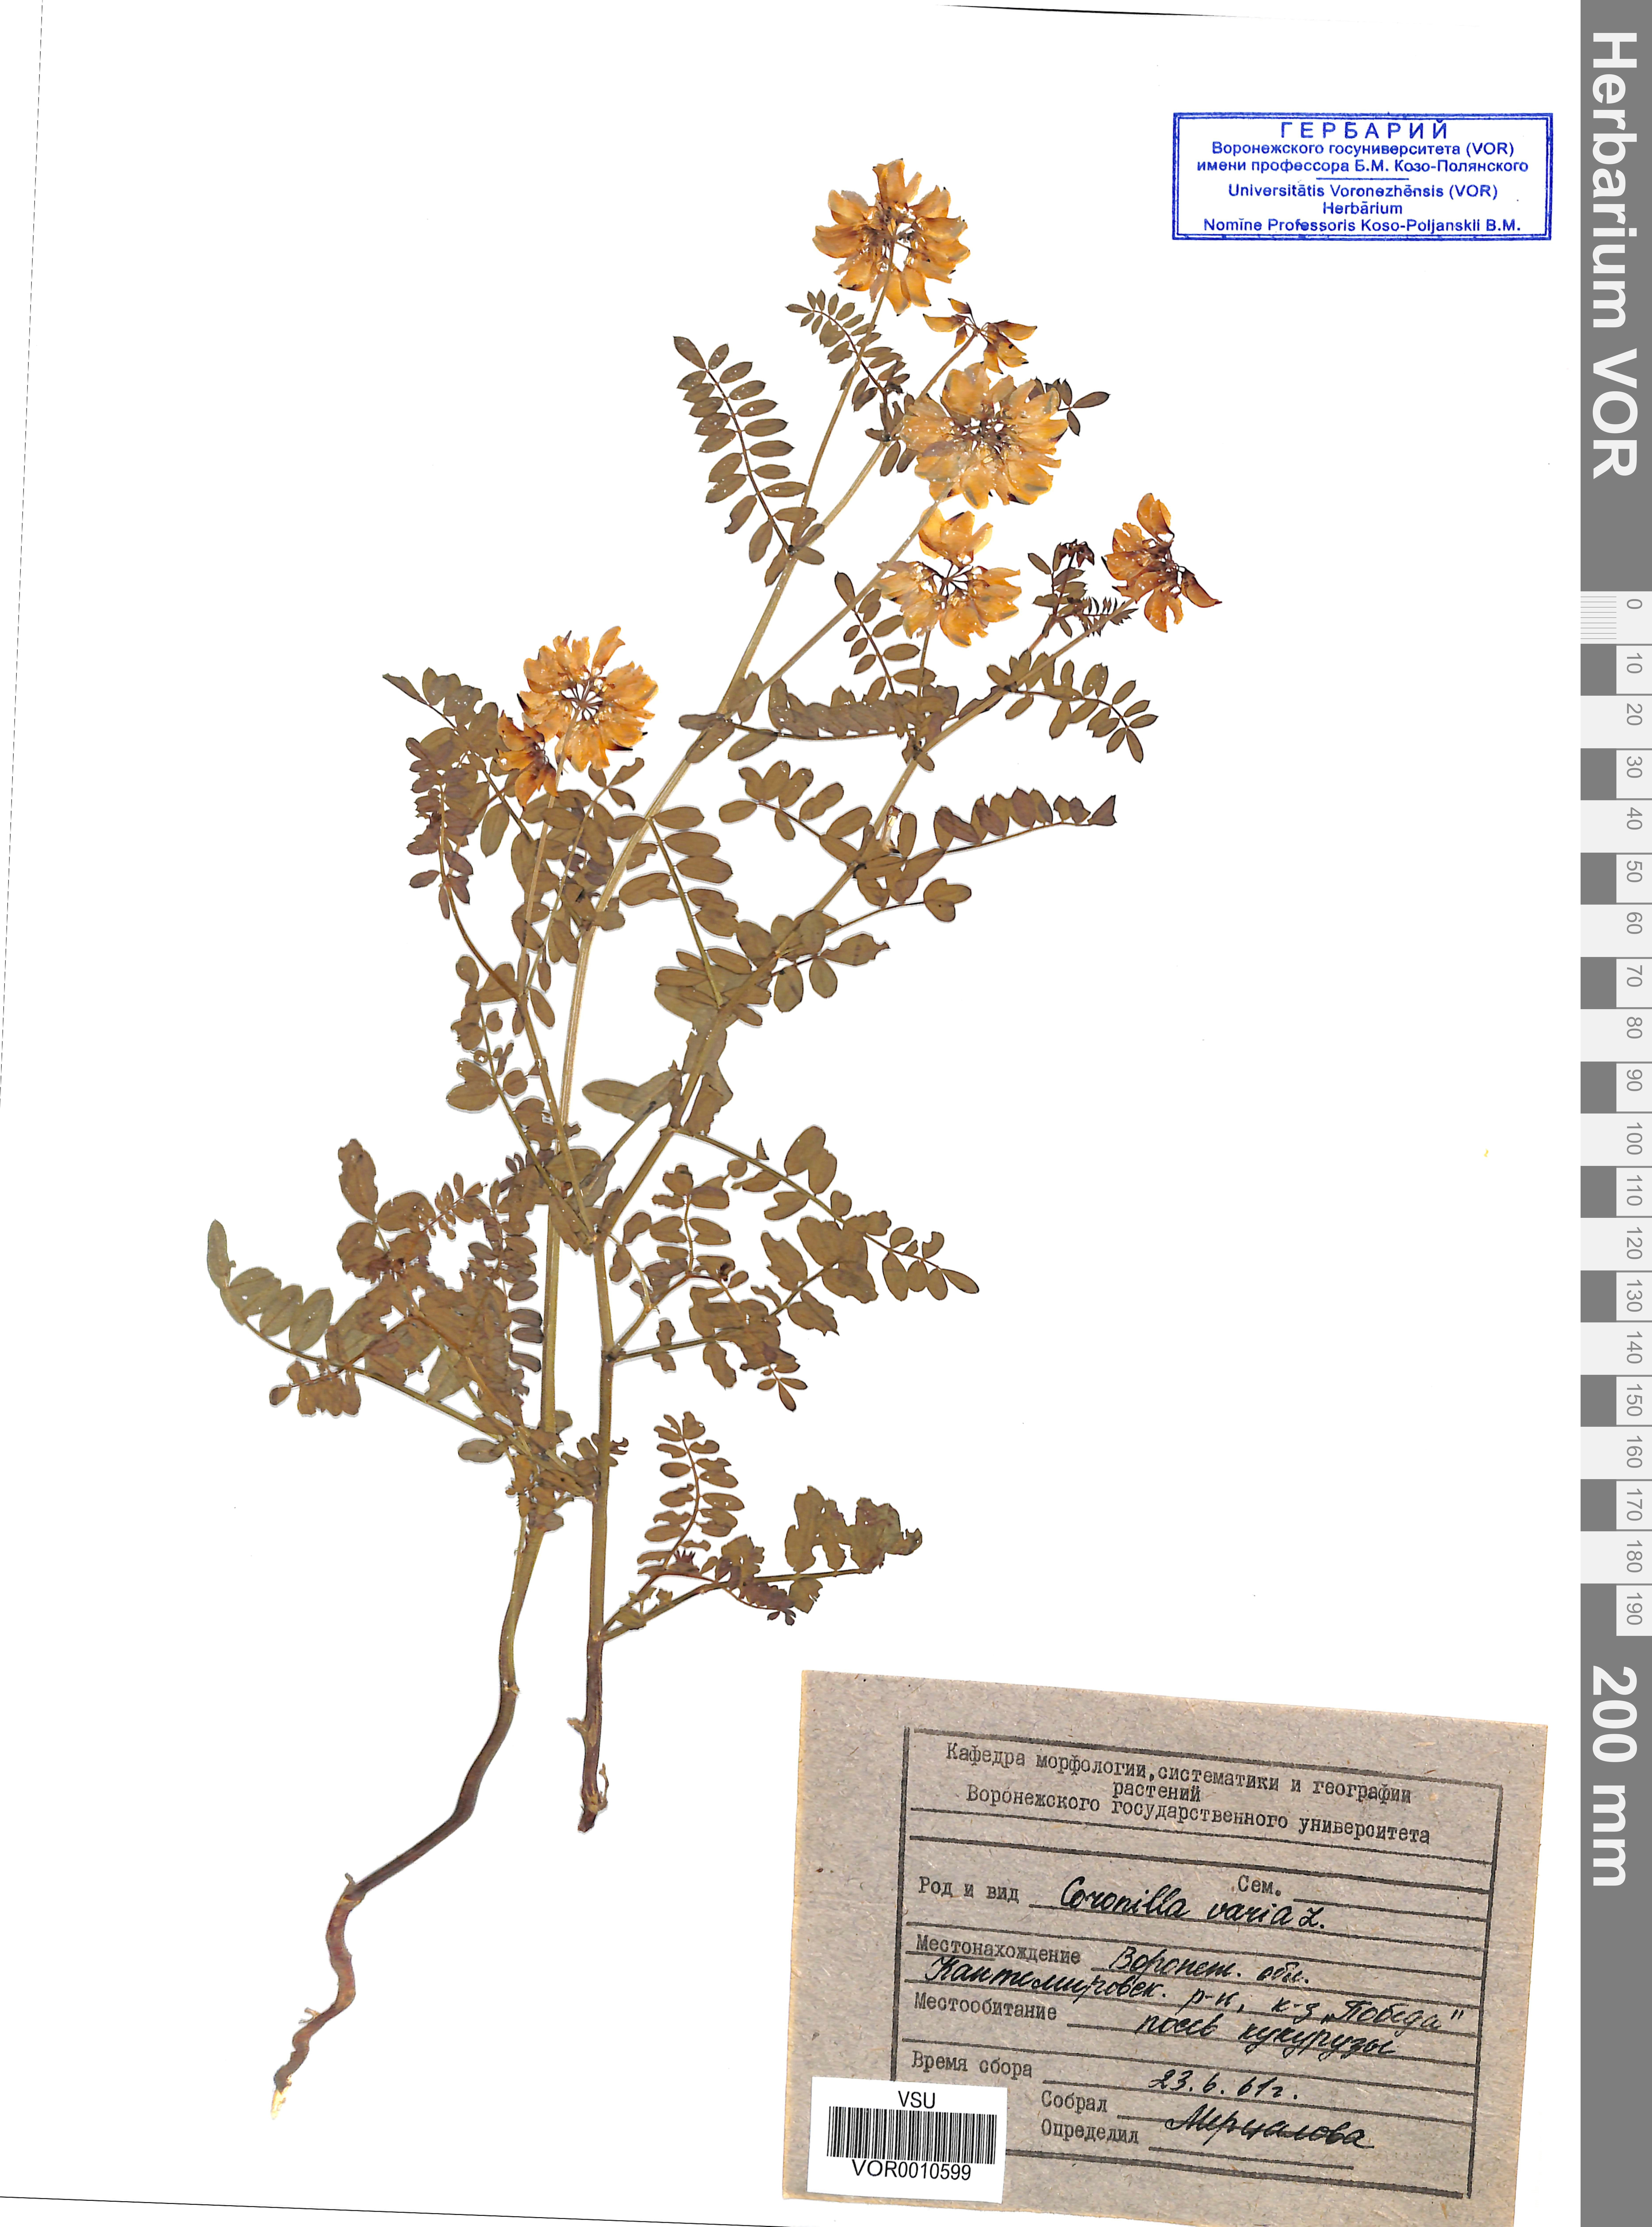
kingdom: Plantae
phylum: Tracheophyta
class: Magnoliopsida
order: Fabales
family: Fabaceae
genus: Coronilla
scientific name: Coronilla varia
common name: Crownvetch
